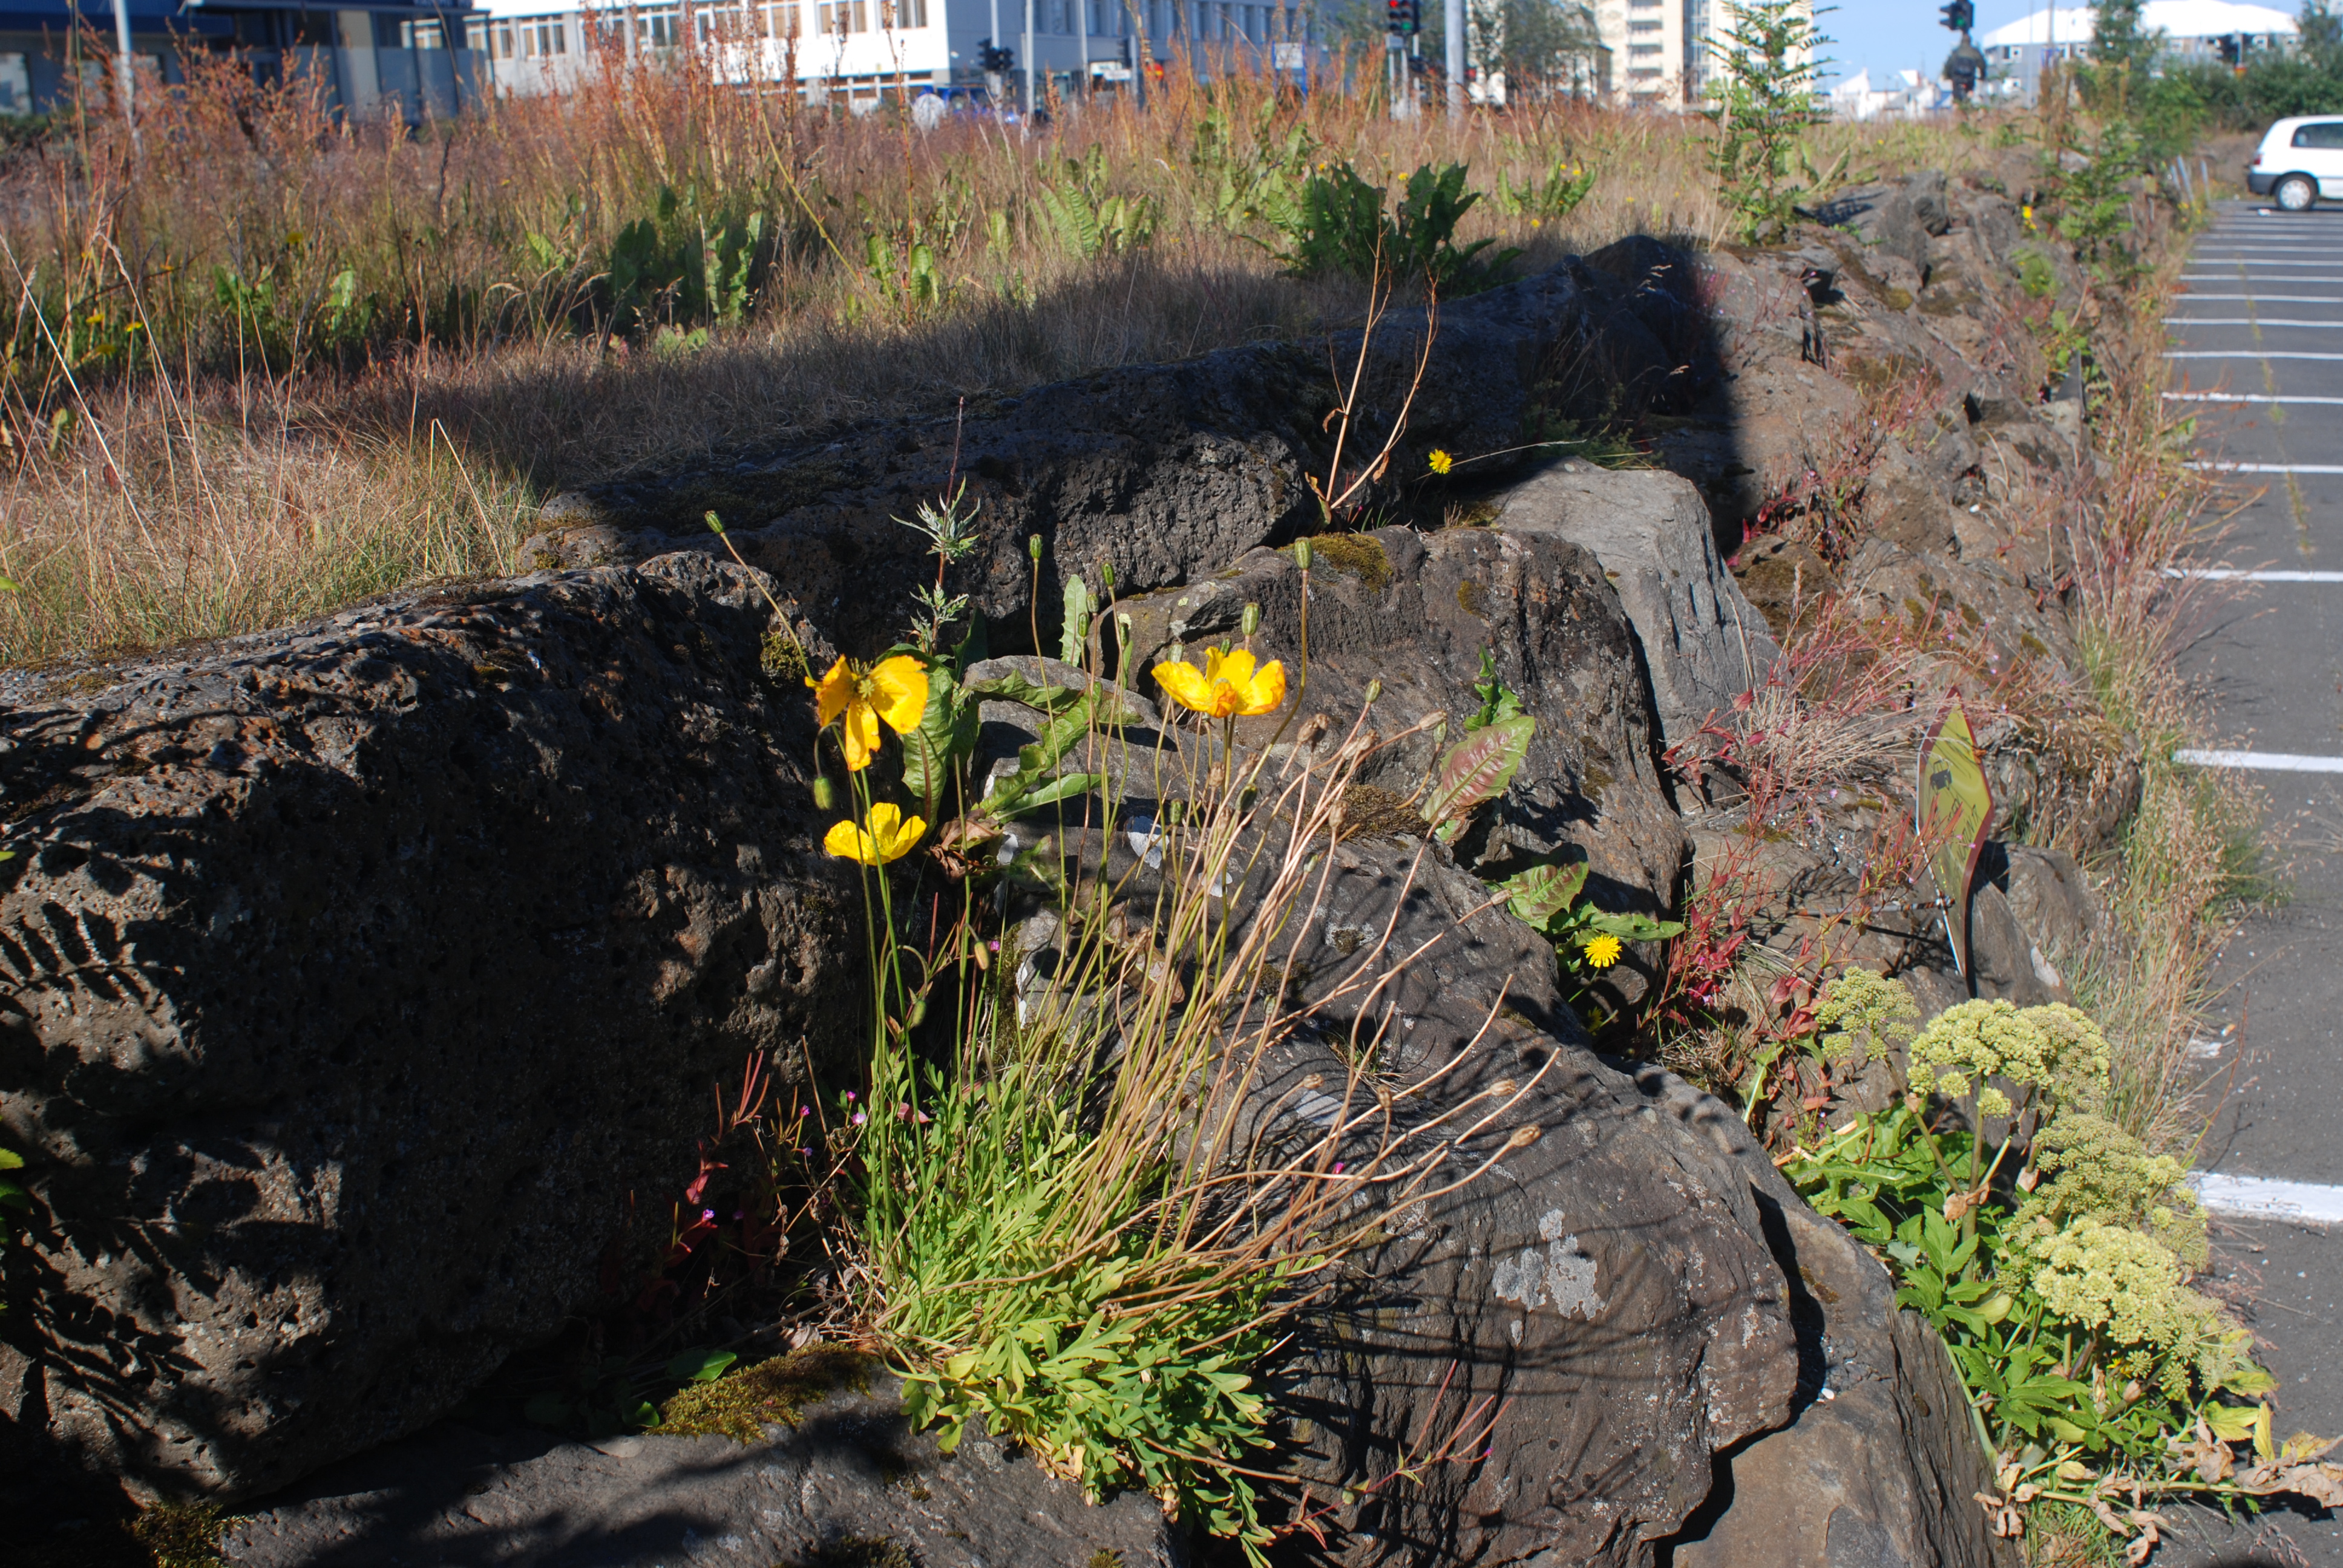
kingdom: Plantae
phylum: Tracheophyta
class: Magnoliopsida
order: Ranunculales
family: Papaveraceae
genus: Papaver
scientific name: Papaver nudicaule
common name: Arctic poppy
